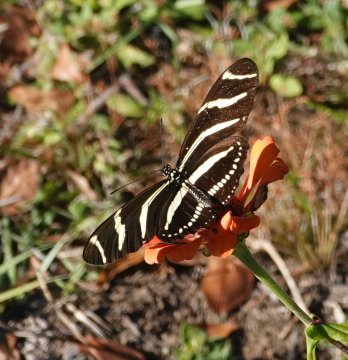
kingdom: Animalia
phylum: Arthropoda
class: Insecta
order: Lepidoptera
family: Nymphalidae
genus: Heliconius
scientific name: Heliconius charithonia
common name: Zebra Longwing
